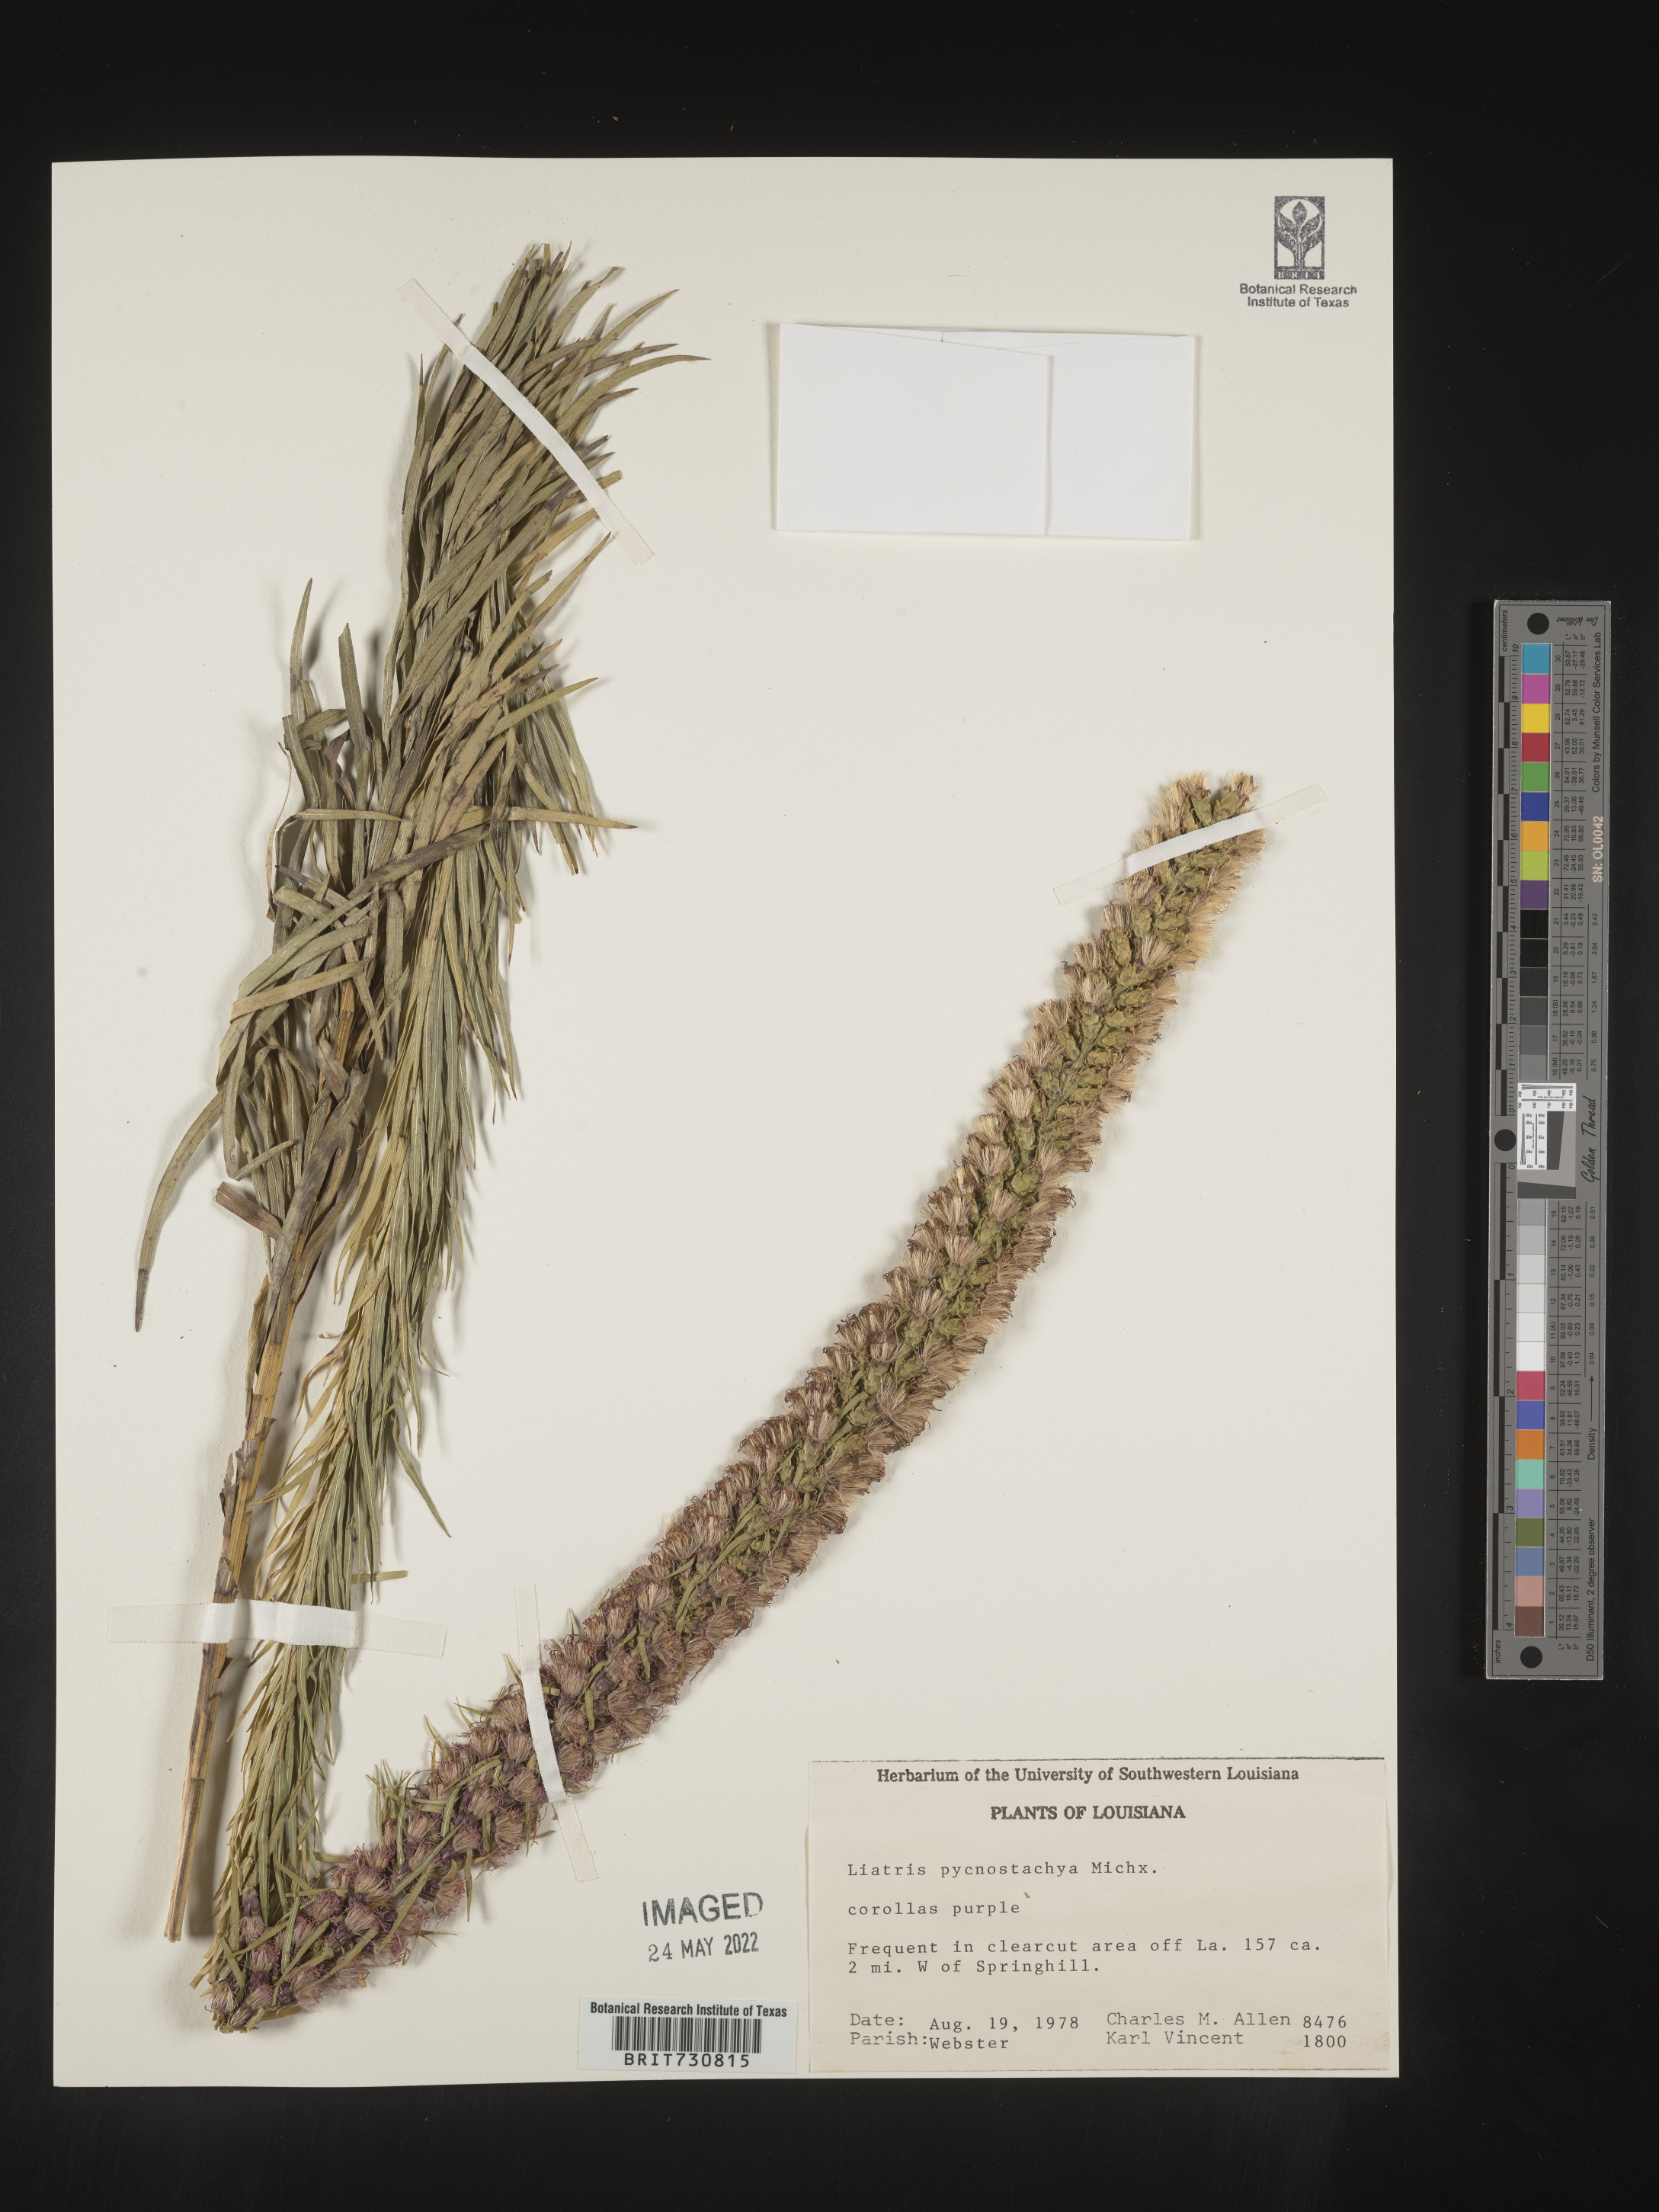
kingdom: Plantae
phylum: Tracheophyta
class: Magnoliopsida
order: Asterales
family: Asteraceae
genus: Liatris
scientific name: Liatris pycnostachya
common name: Cattail gayfeather
